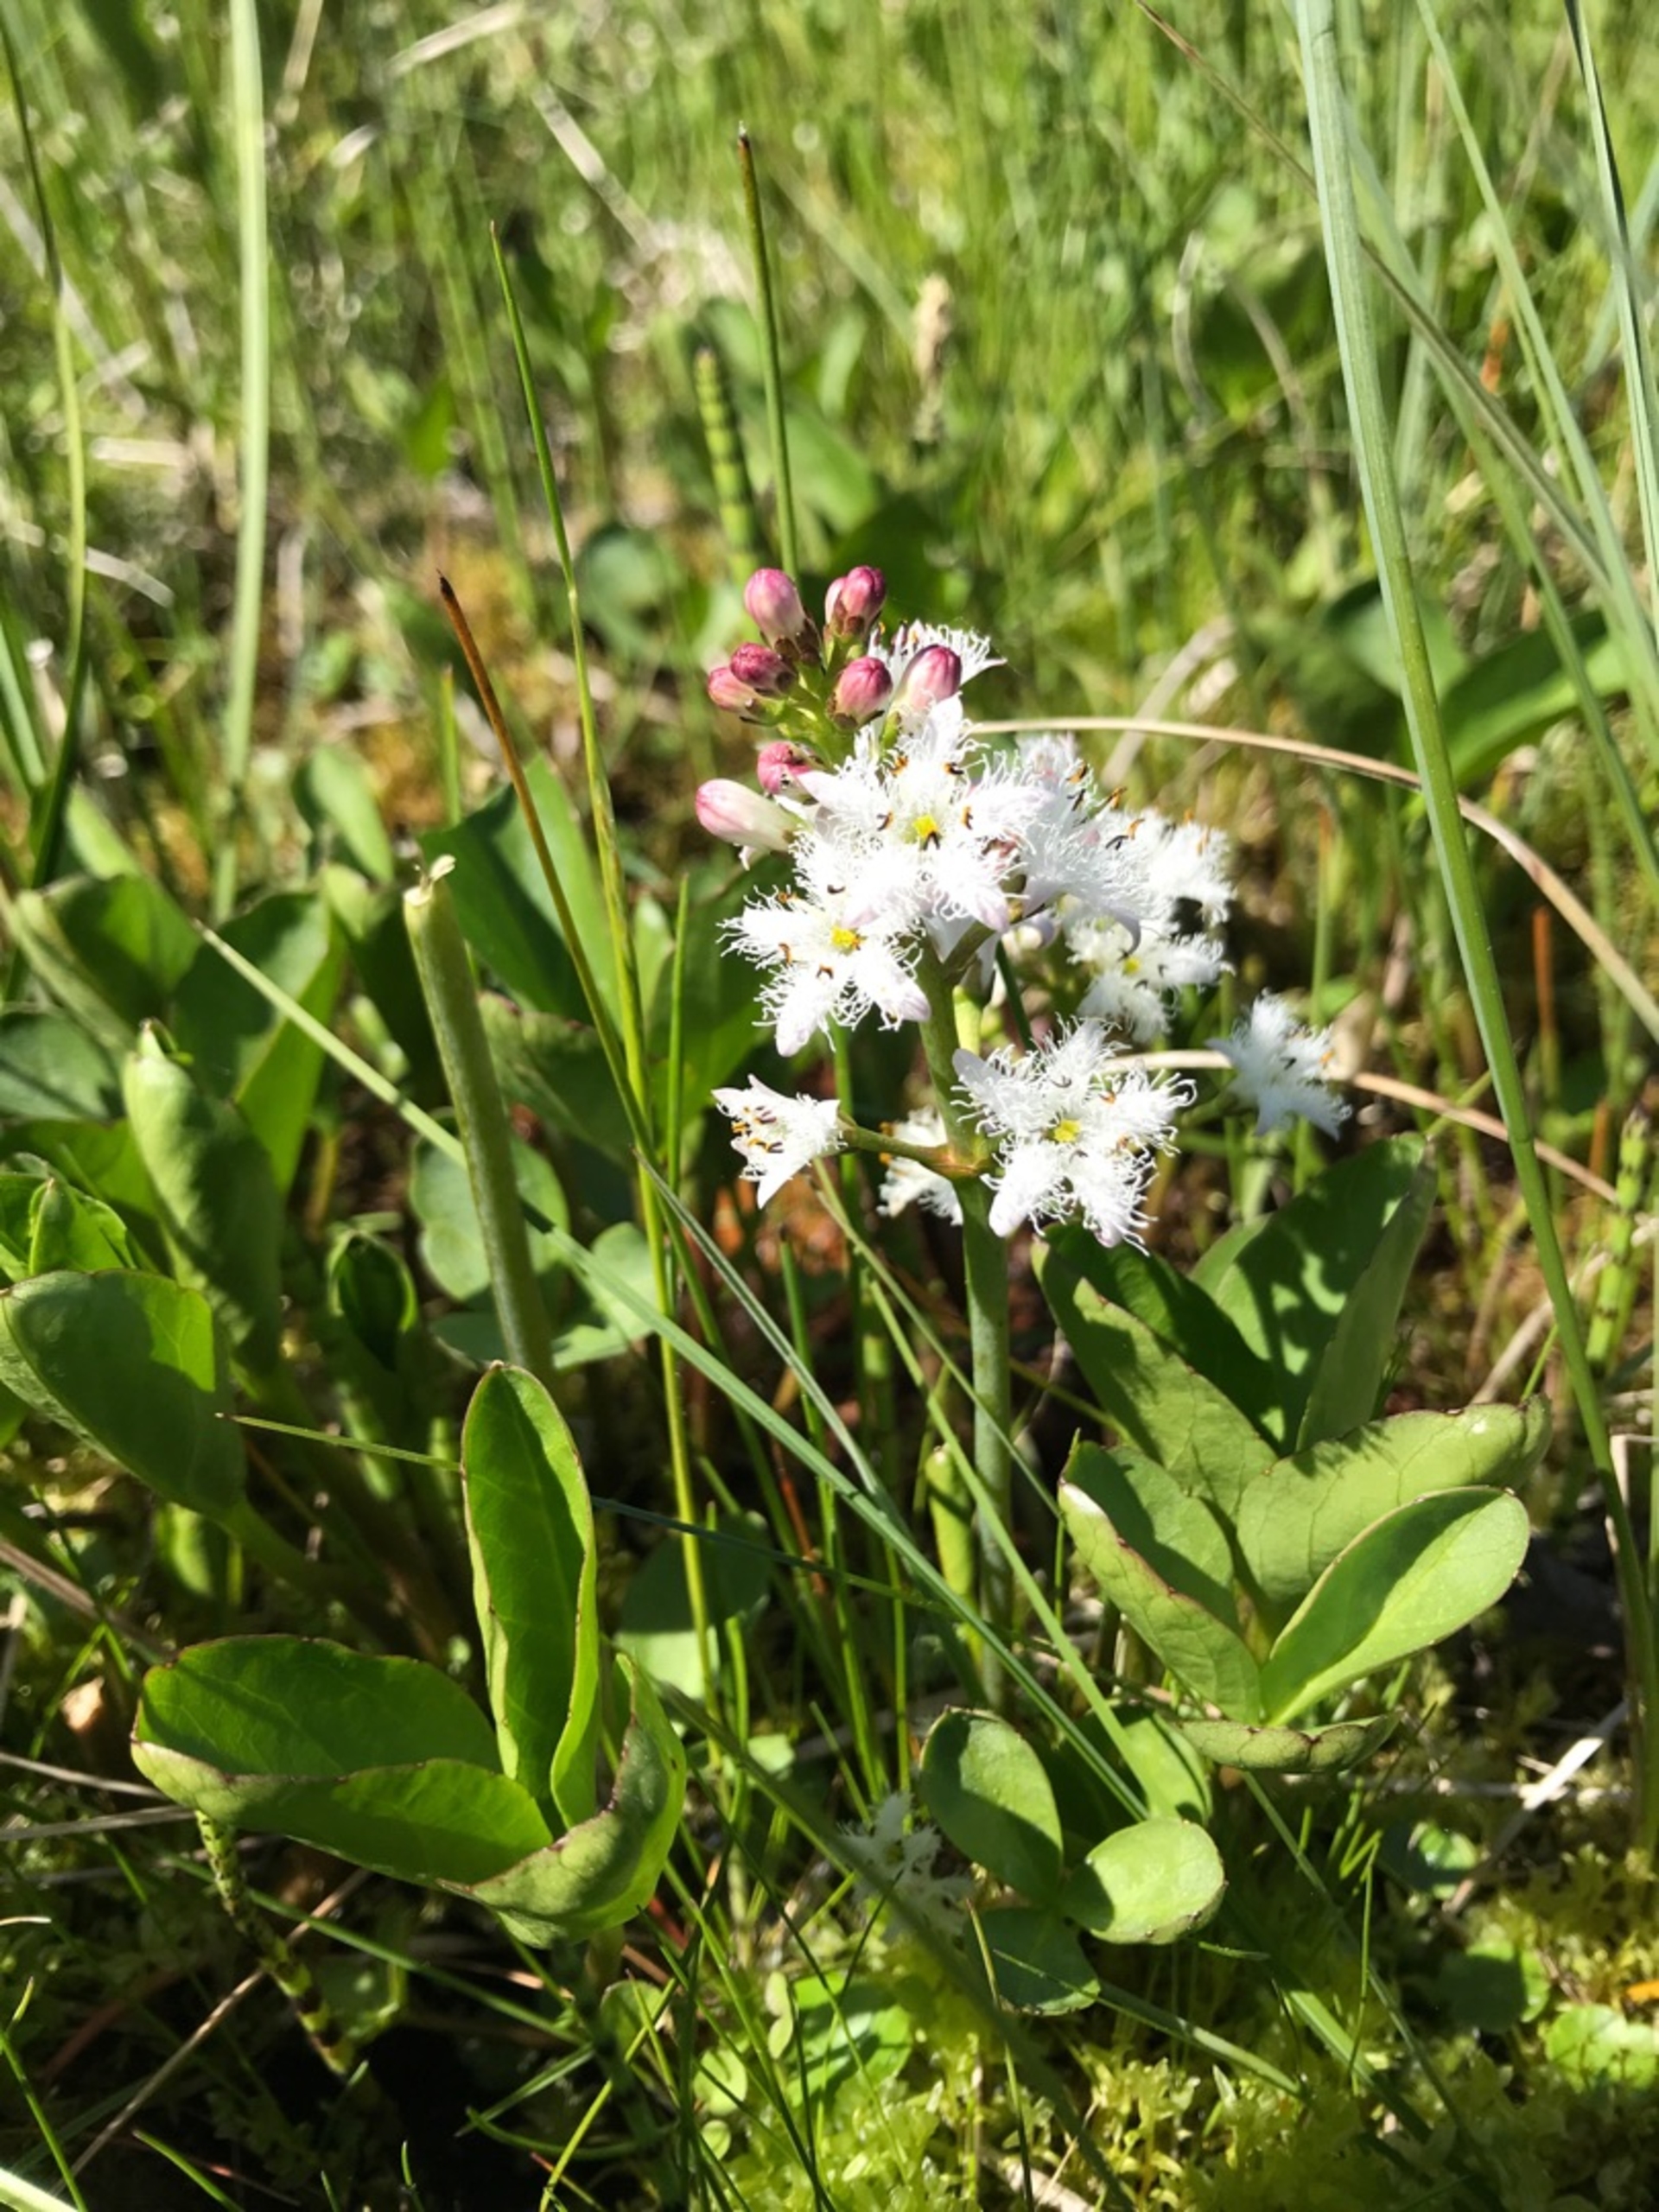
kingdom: Plantae
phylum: Tracheophyta
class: Magnoliopsida
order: Asterales
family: Menyanthaceae
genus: Menyanthes
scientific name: Menyanthes trifoliata
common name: Bukkeblad
